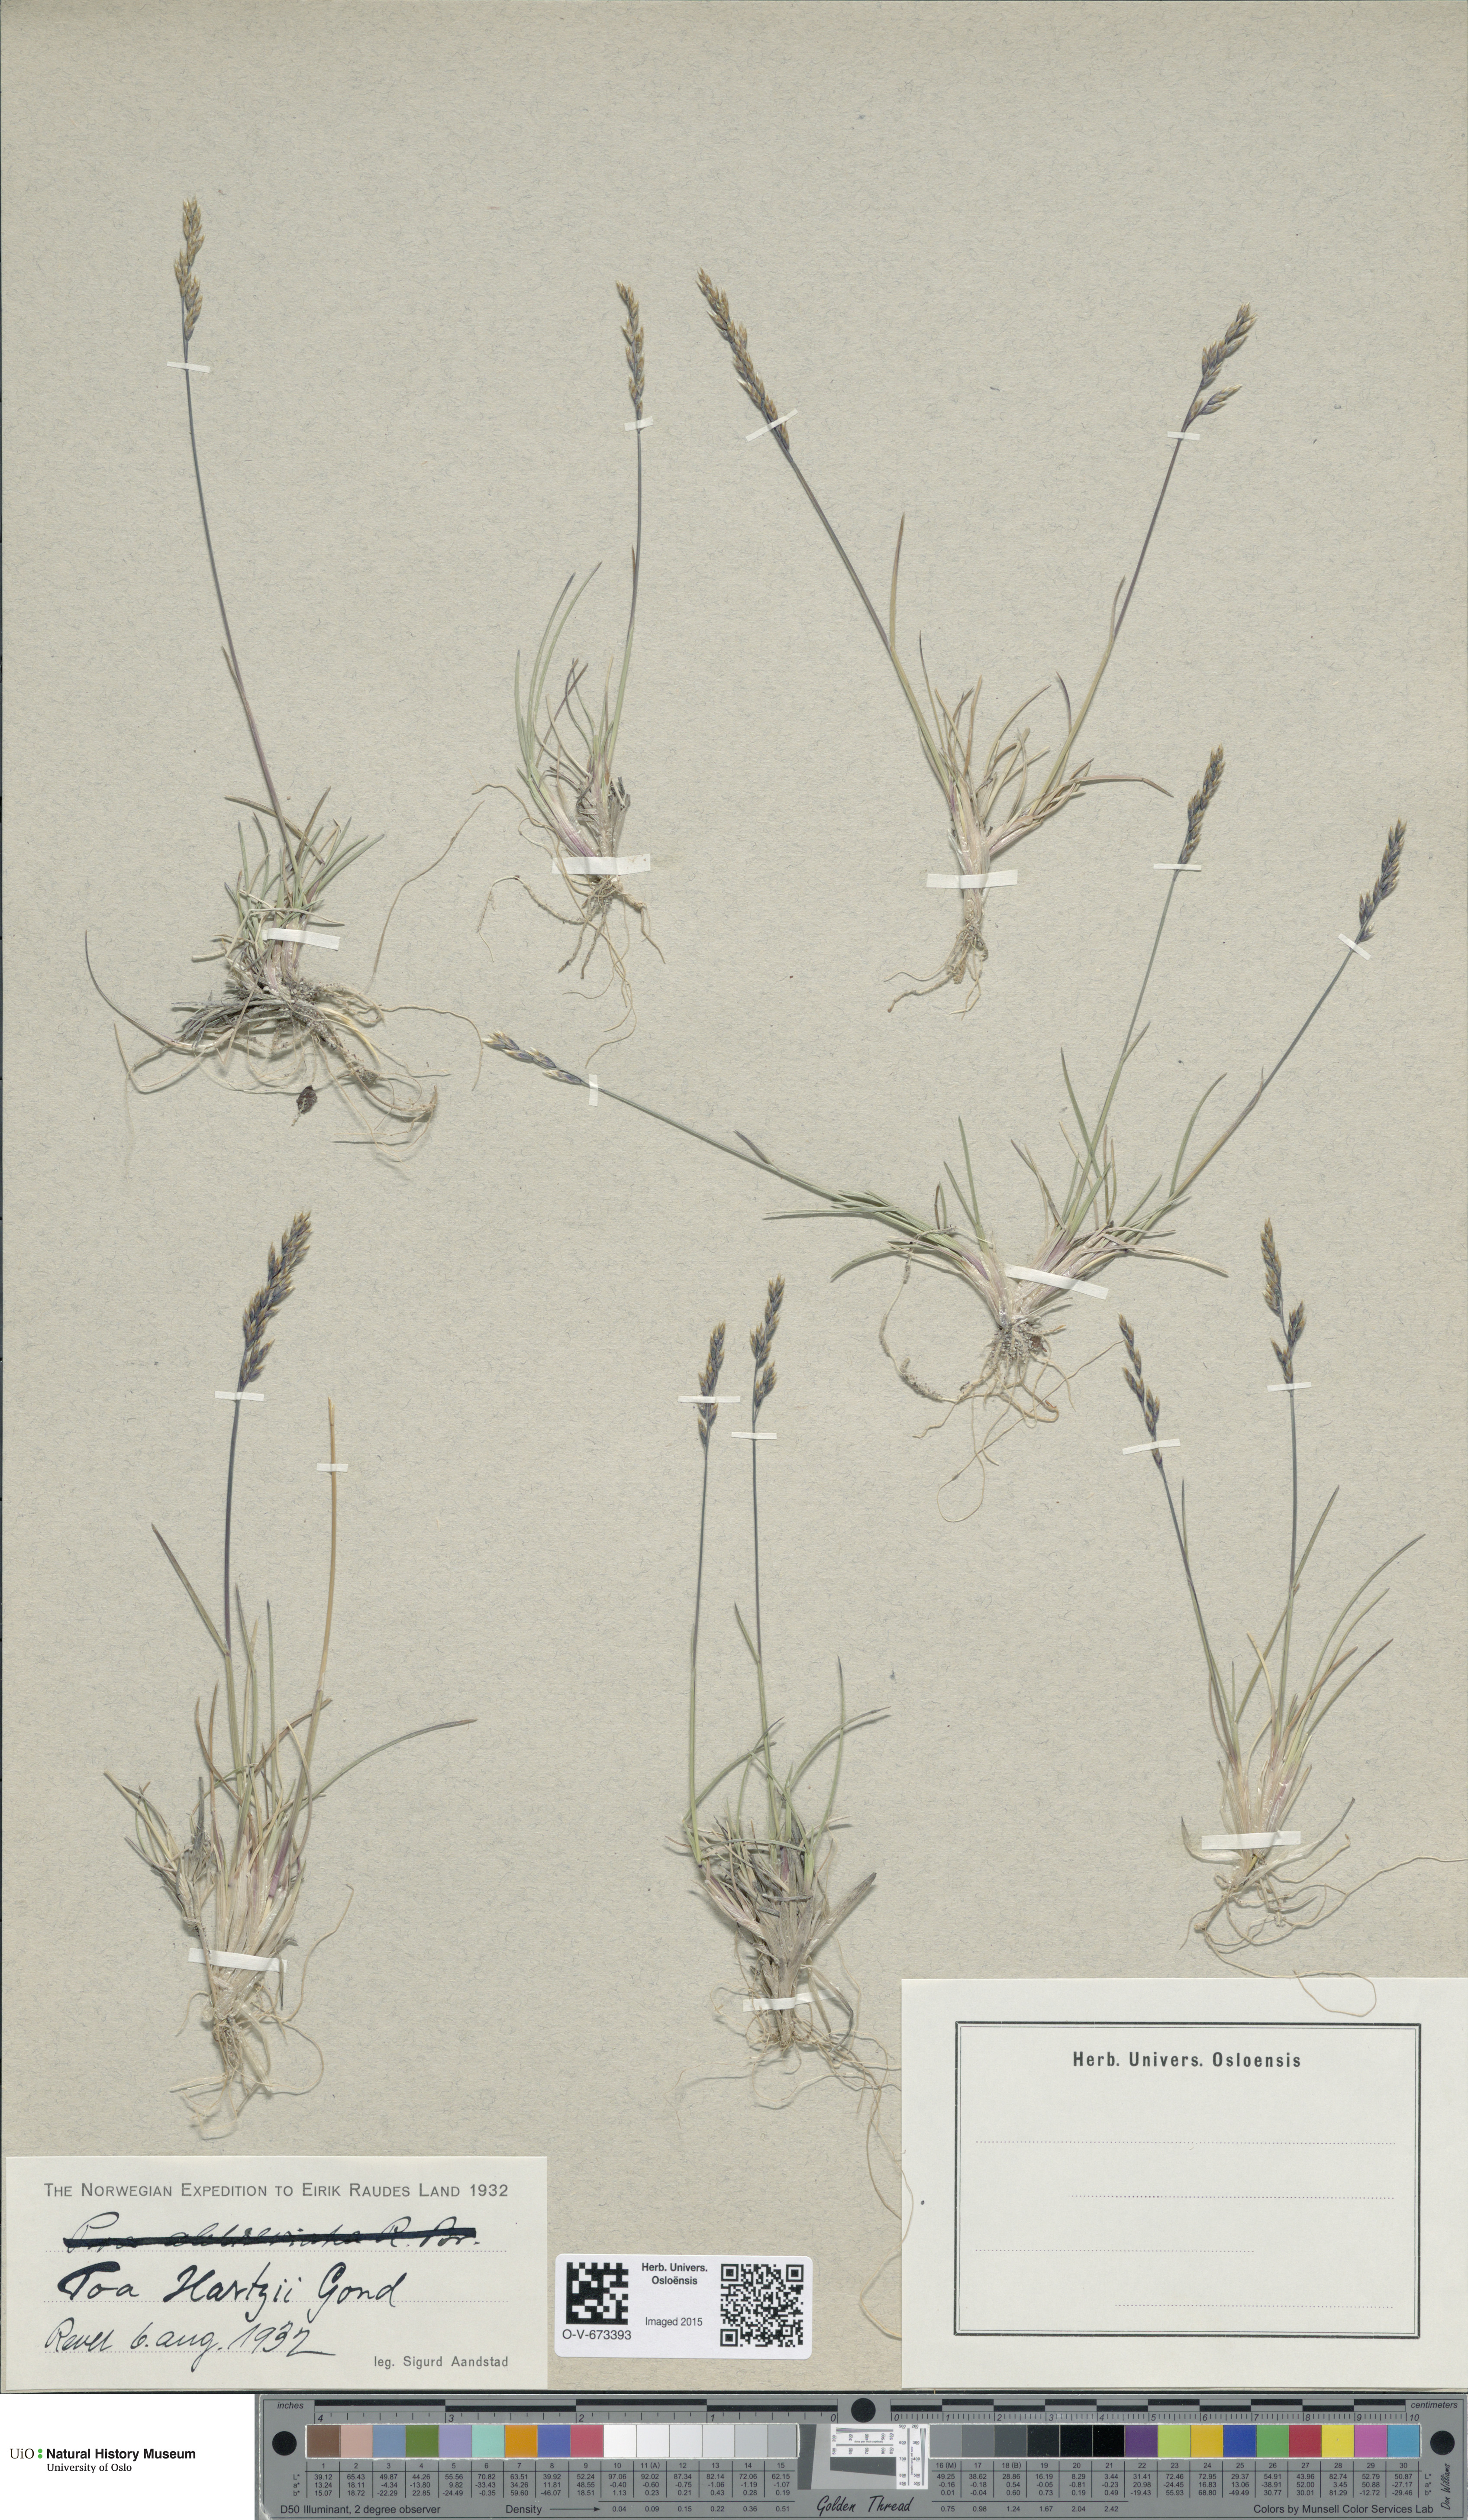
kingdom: Plantae
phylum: Tracheophyta
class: Liliopsida
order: Poales
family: Poaceae
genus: Poa
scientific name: Poa hartzii
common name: Hartz's bluegrass
